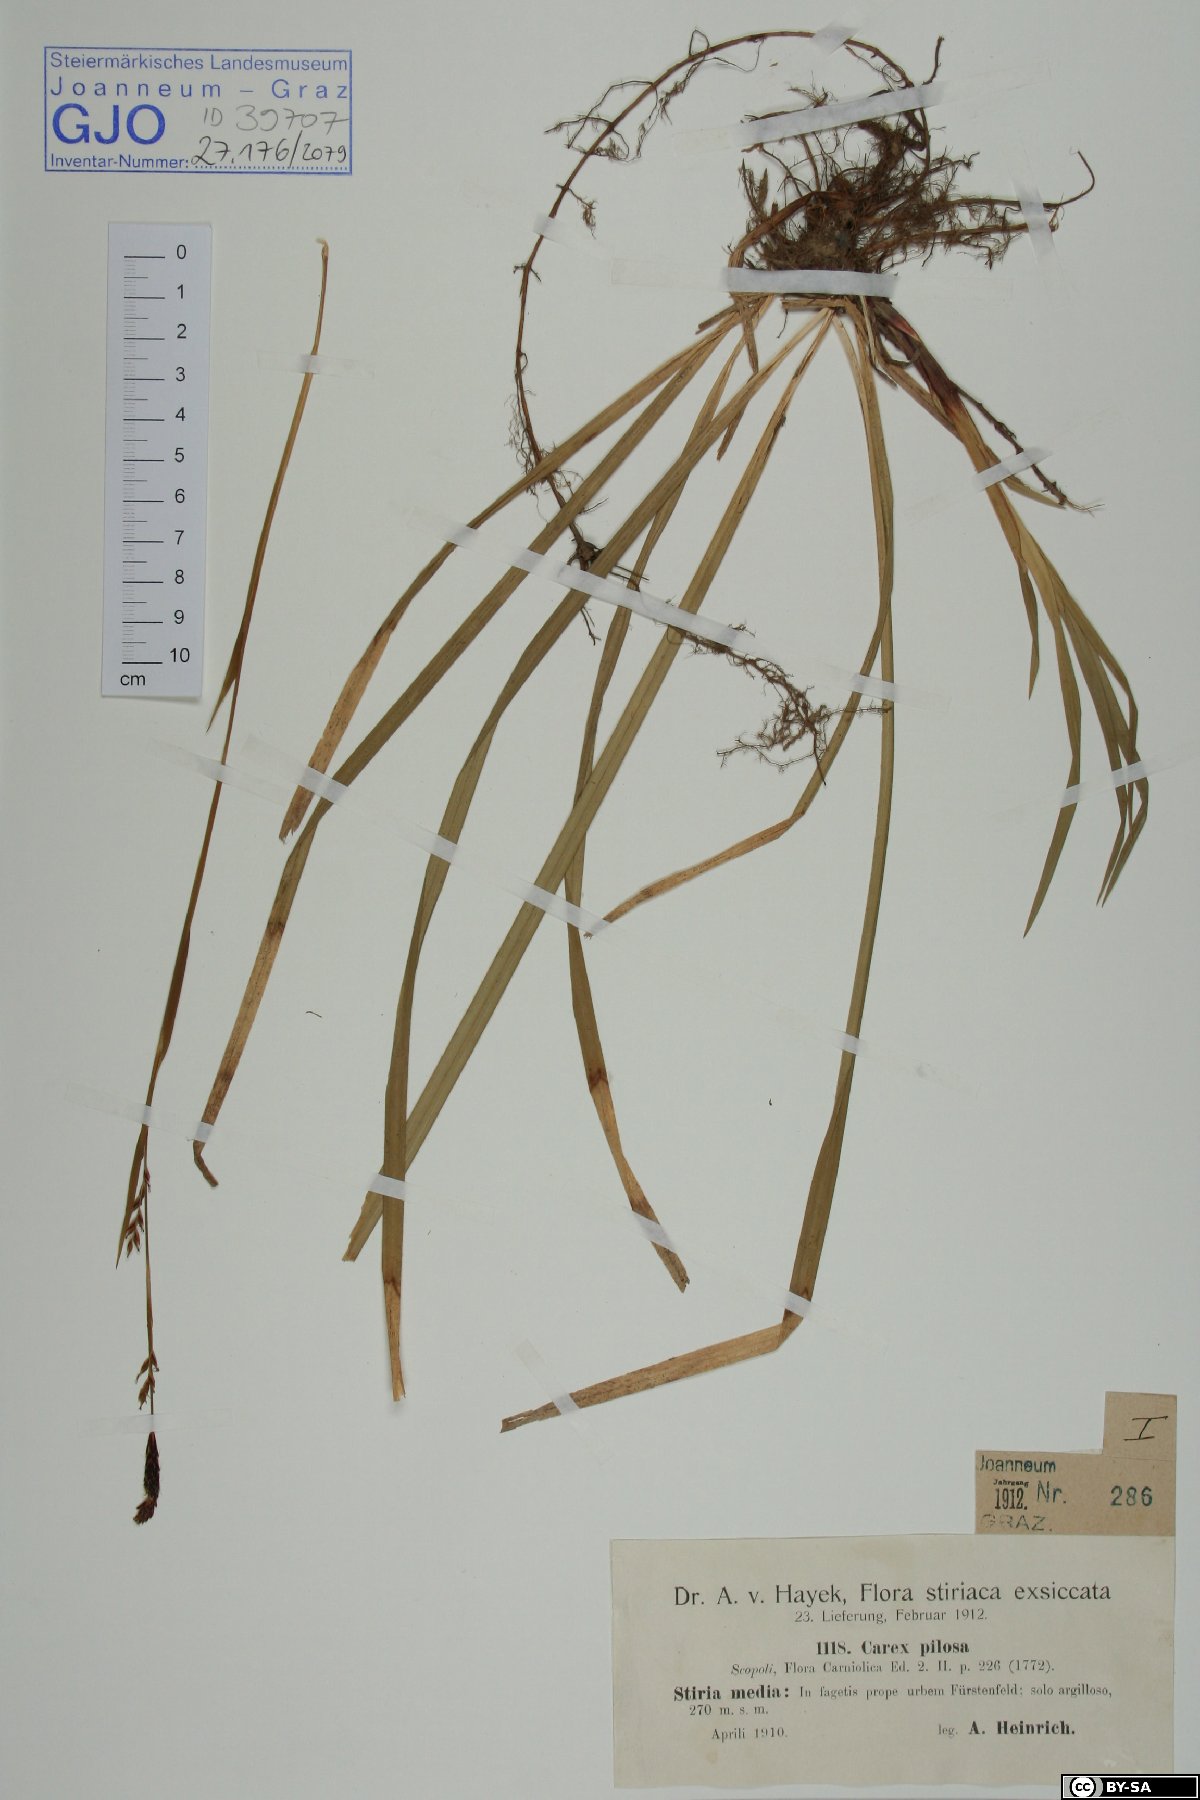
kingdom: Plantae
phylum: Tracheophyta
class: Liliopsida
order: Poales
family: Cyperaceae
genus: Carex
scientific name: Carex pilosa
